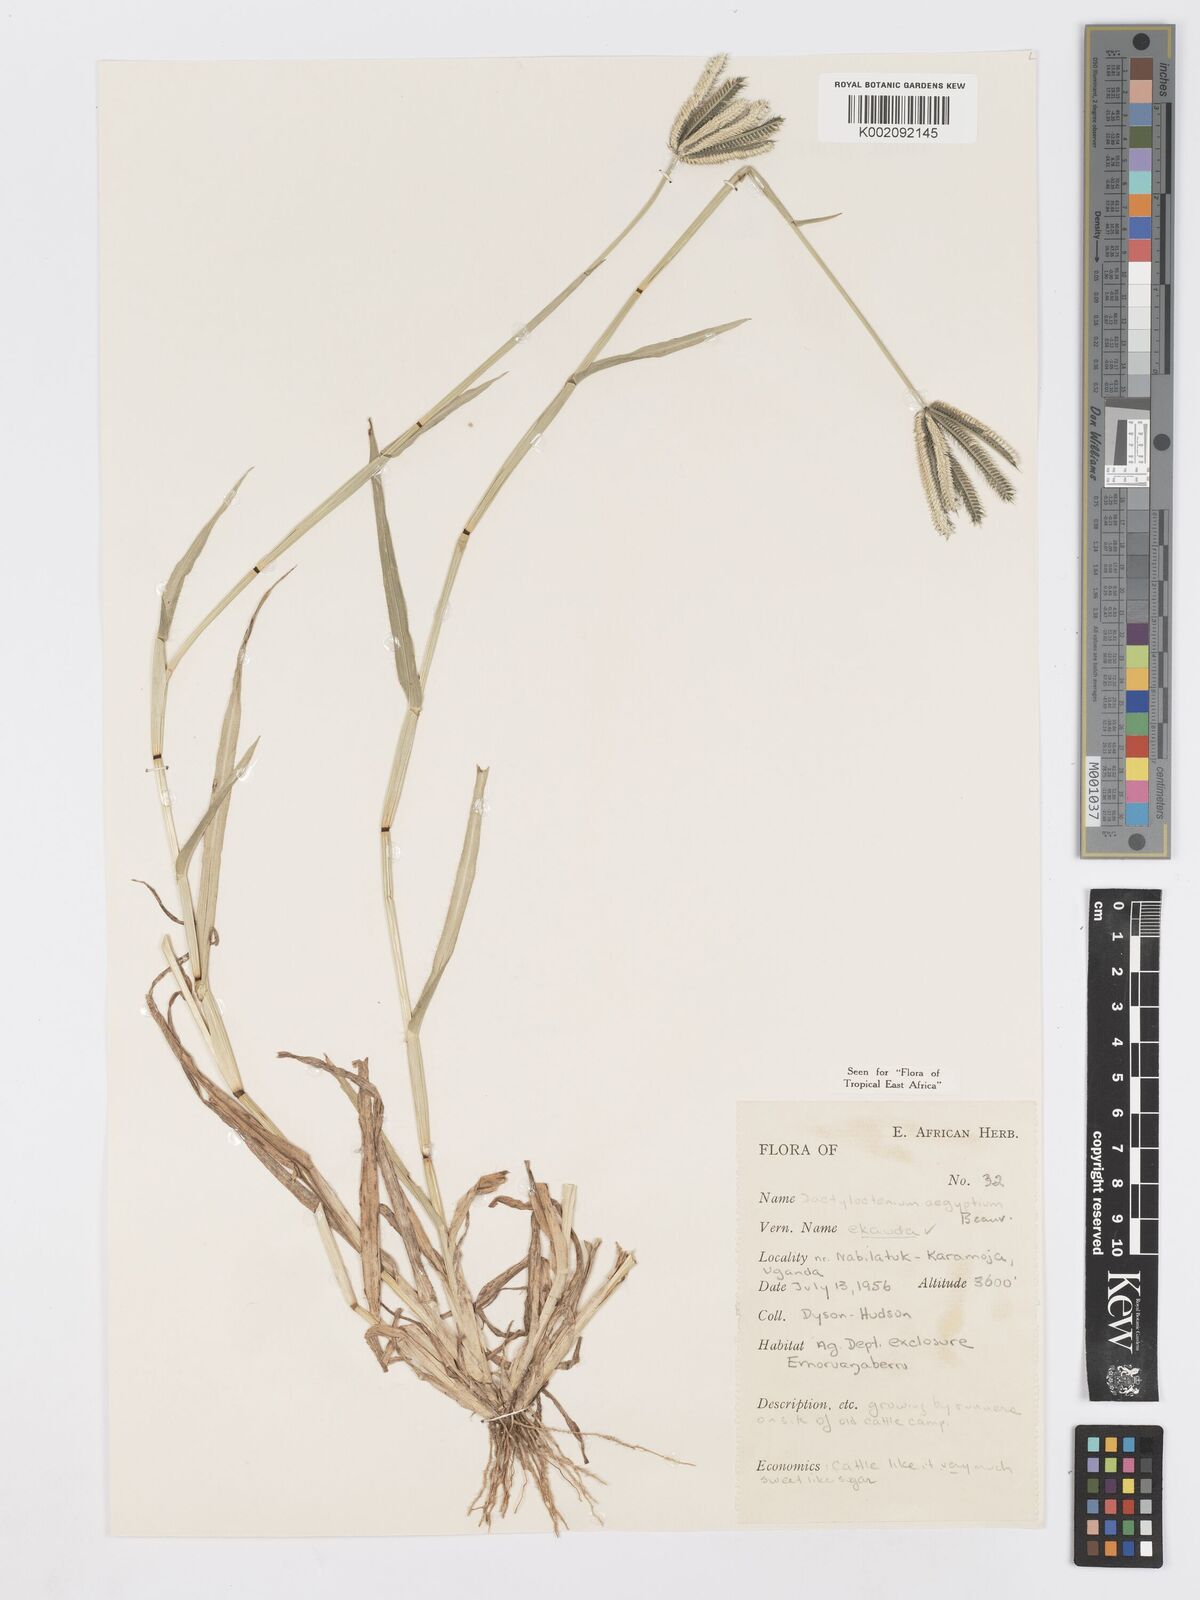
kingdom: Plantae
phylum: Tracheophyta
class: Liliopsida
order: Poales
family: Poaceae
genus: Dactyloctenium
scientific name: Dactyloctenium aegyptium
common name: Egyptian grass
